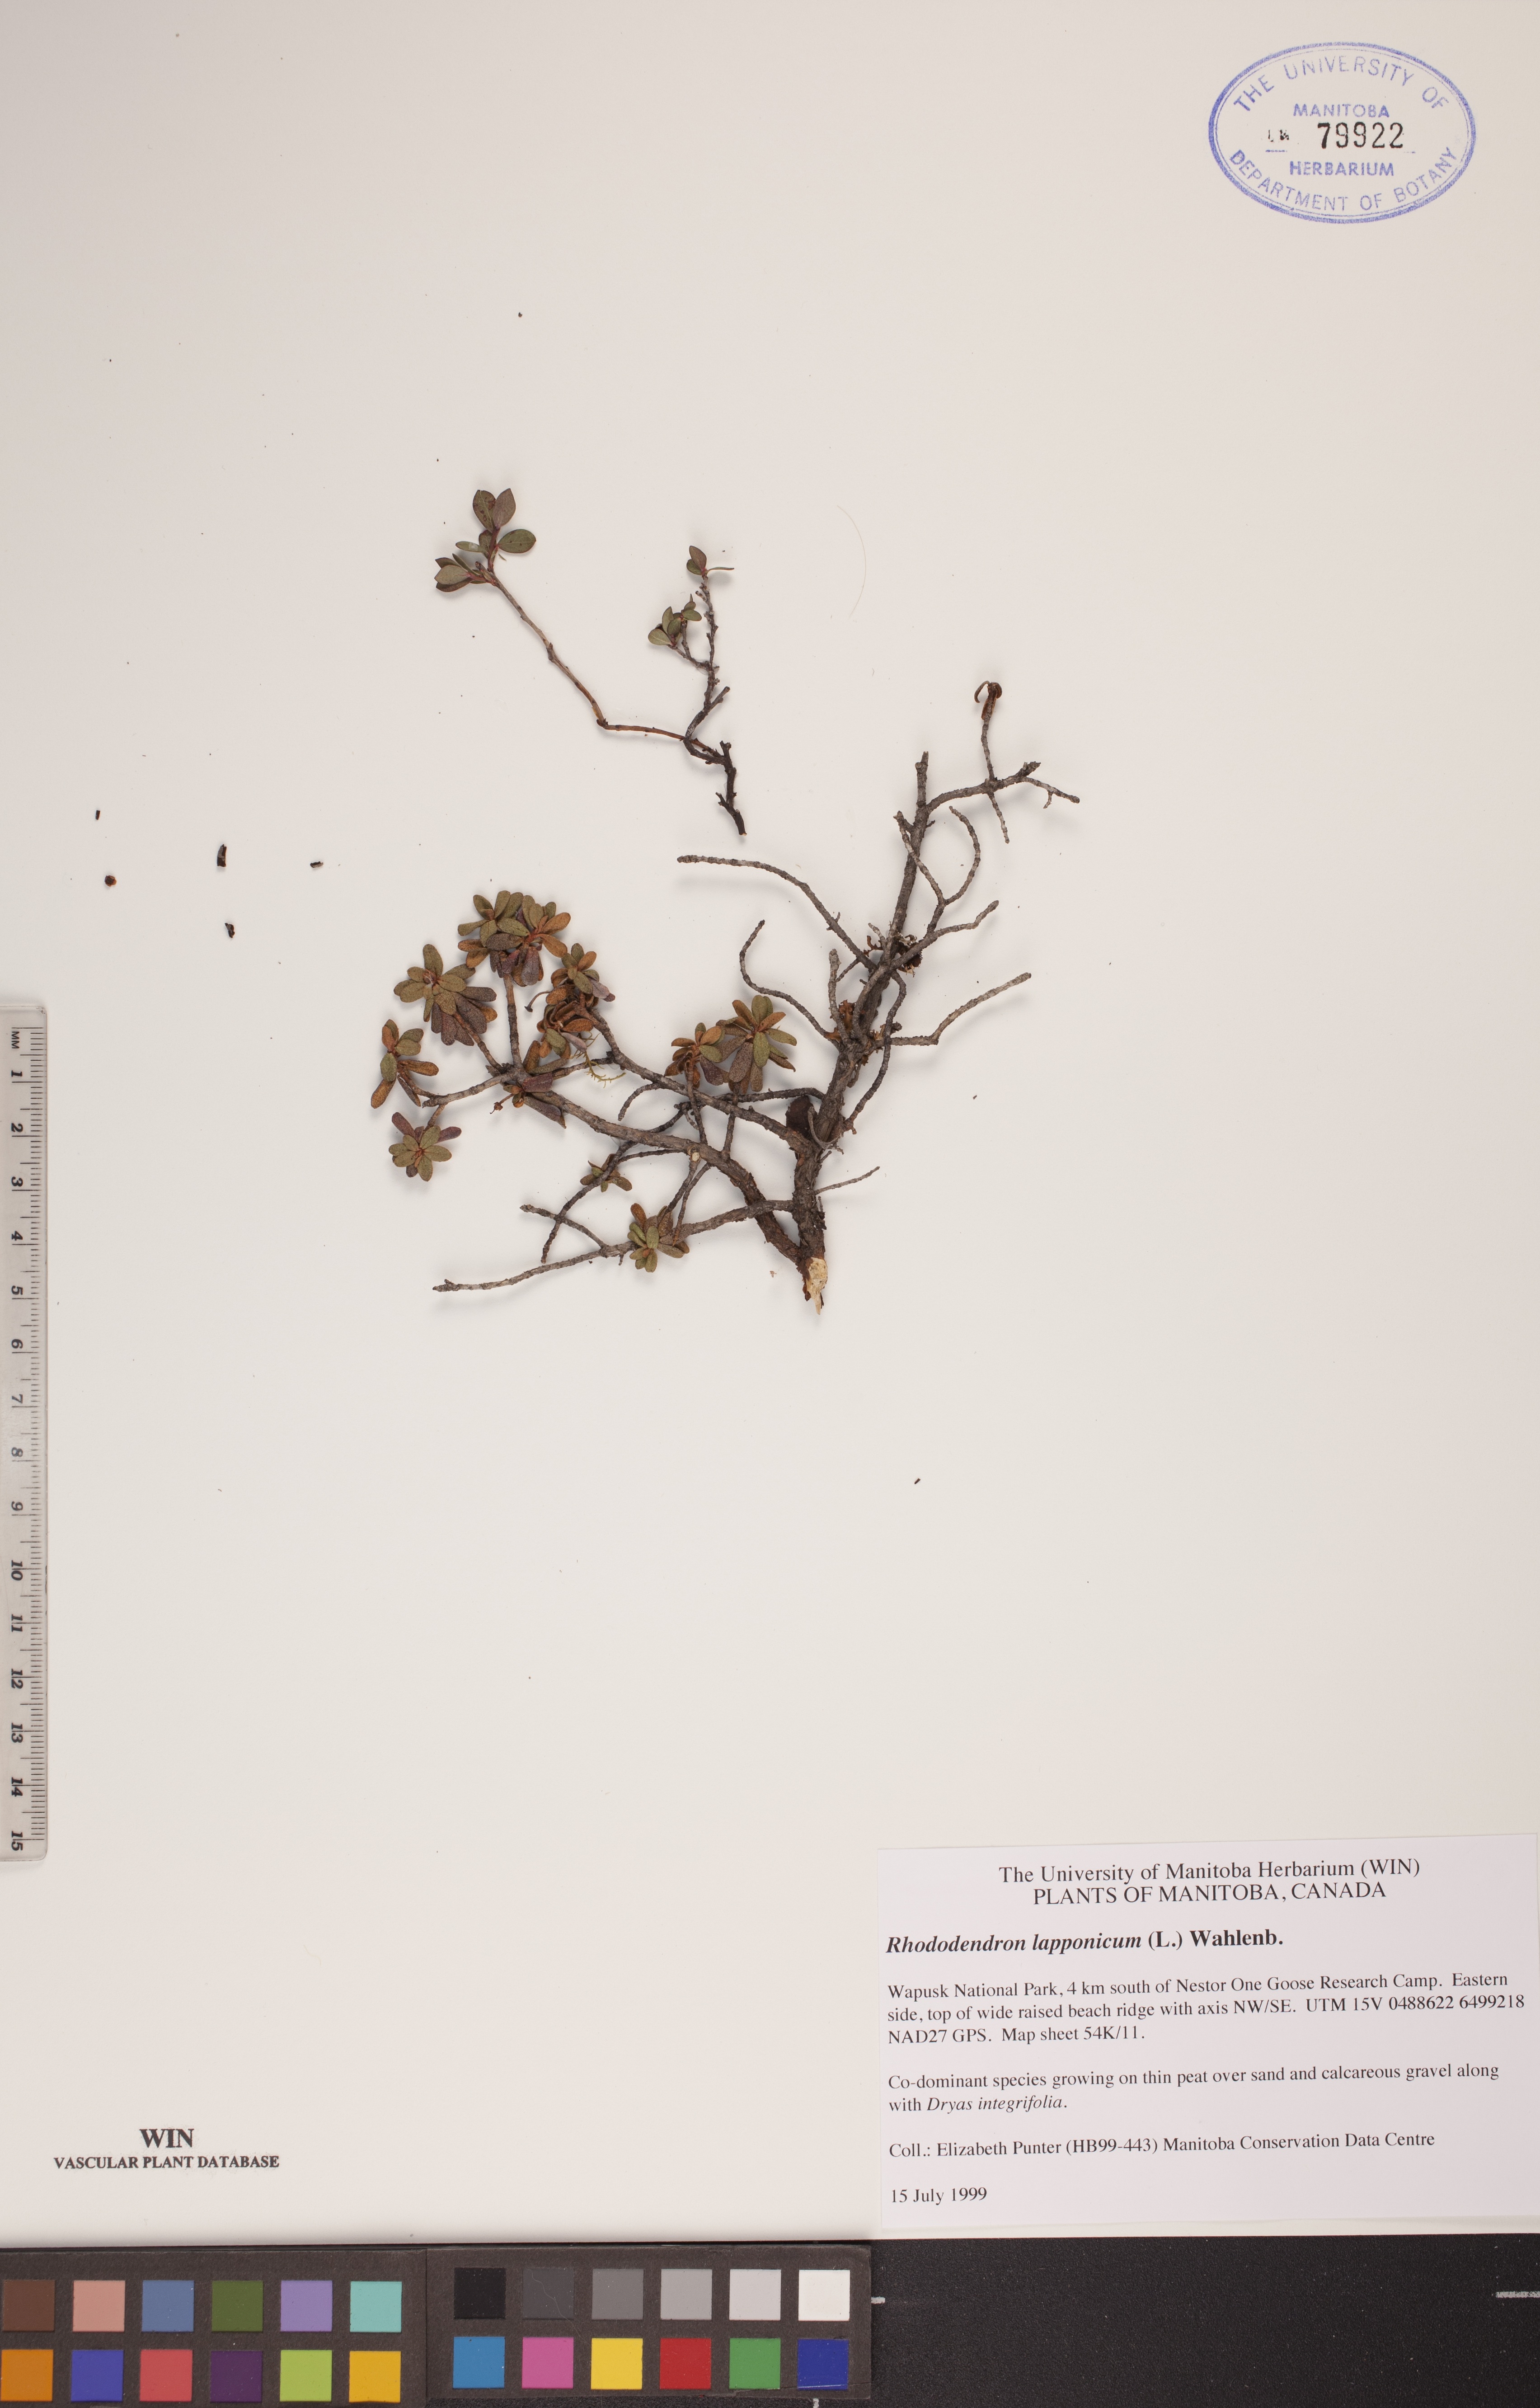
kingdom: Plantae
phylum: Tracheophyta
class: Magnoliopsida
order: Ericales
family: Ericaceae
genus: Rhododendron
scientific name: Rhododendron lapponicum
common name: Lapland rhododendron
